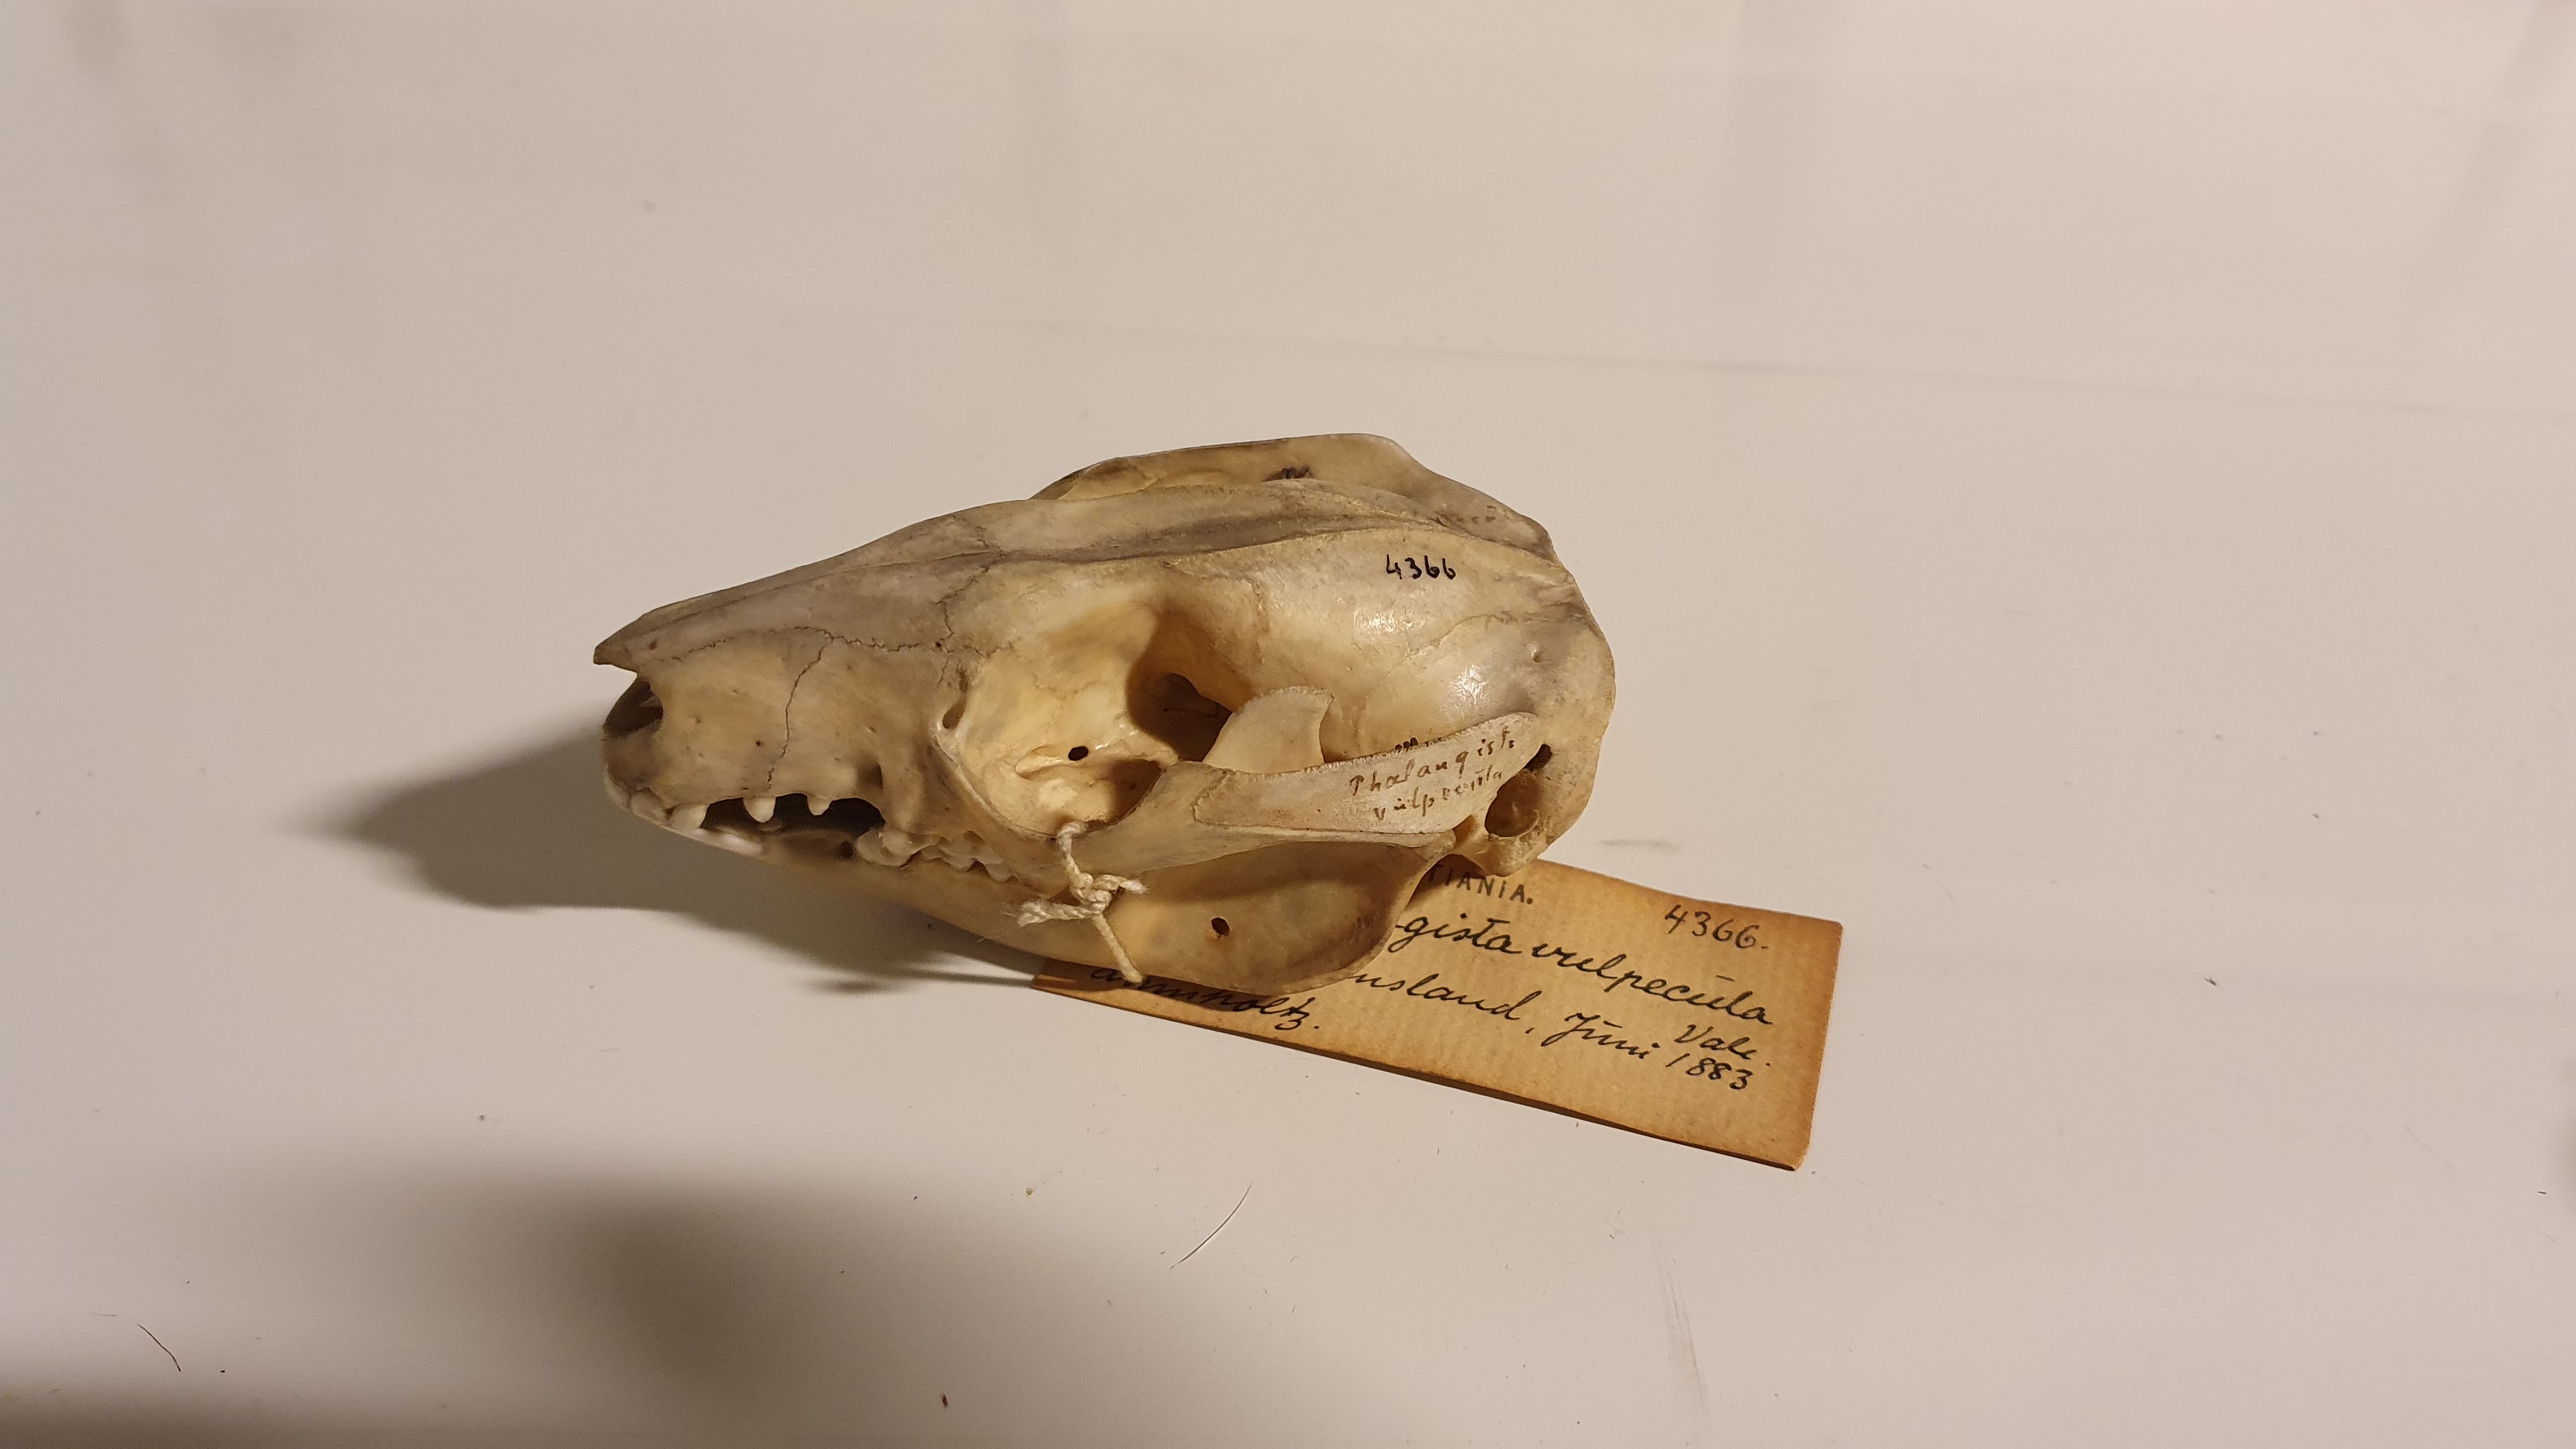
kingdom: Animalia
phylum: Chordata
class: Mammalia
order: Diprotodontia
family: Phalangeridae
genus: Trichosurus
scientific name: Trichosurus vulpecula
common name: Common brushtail
